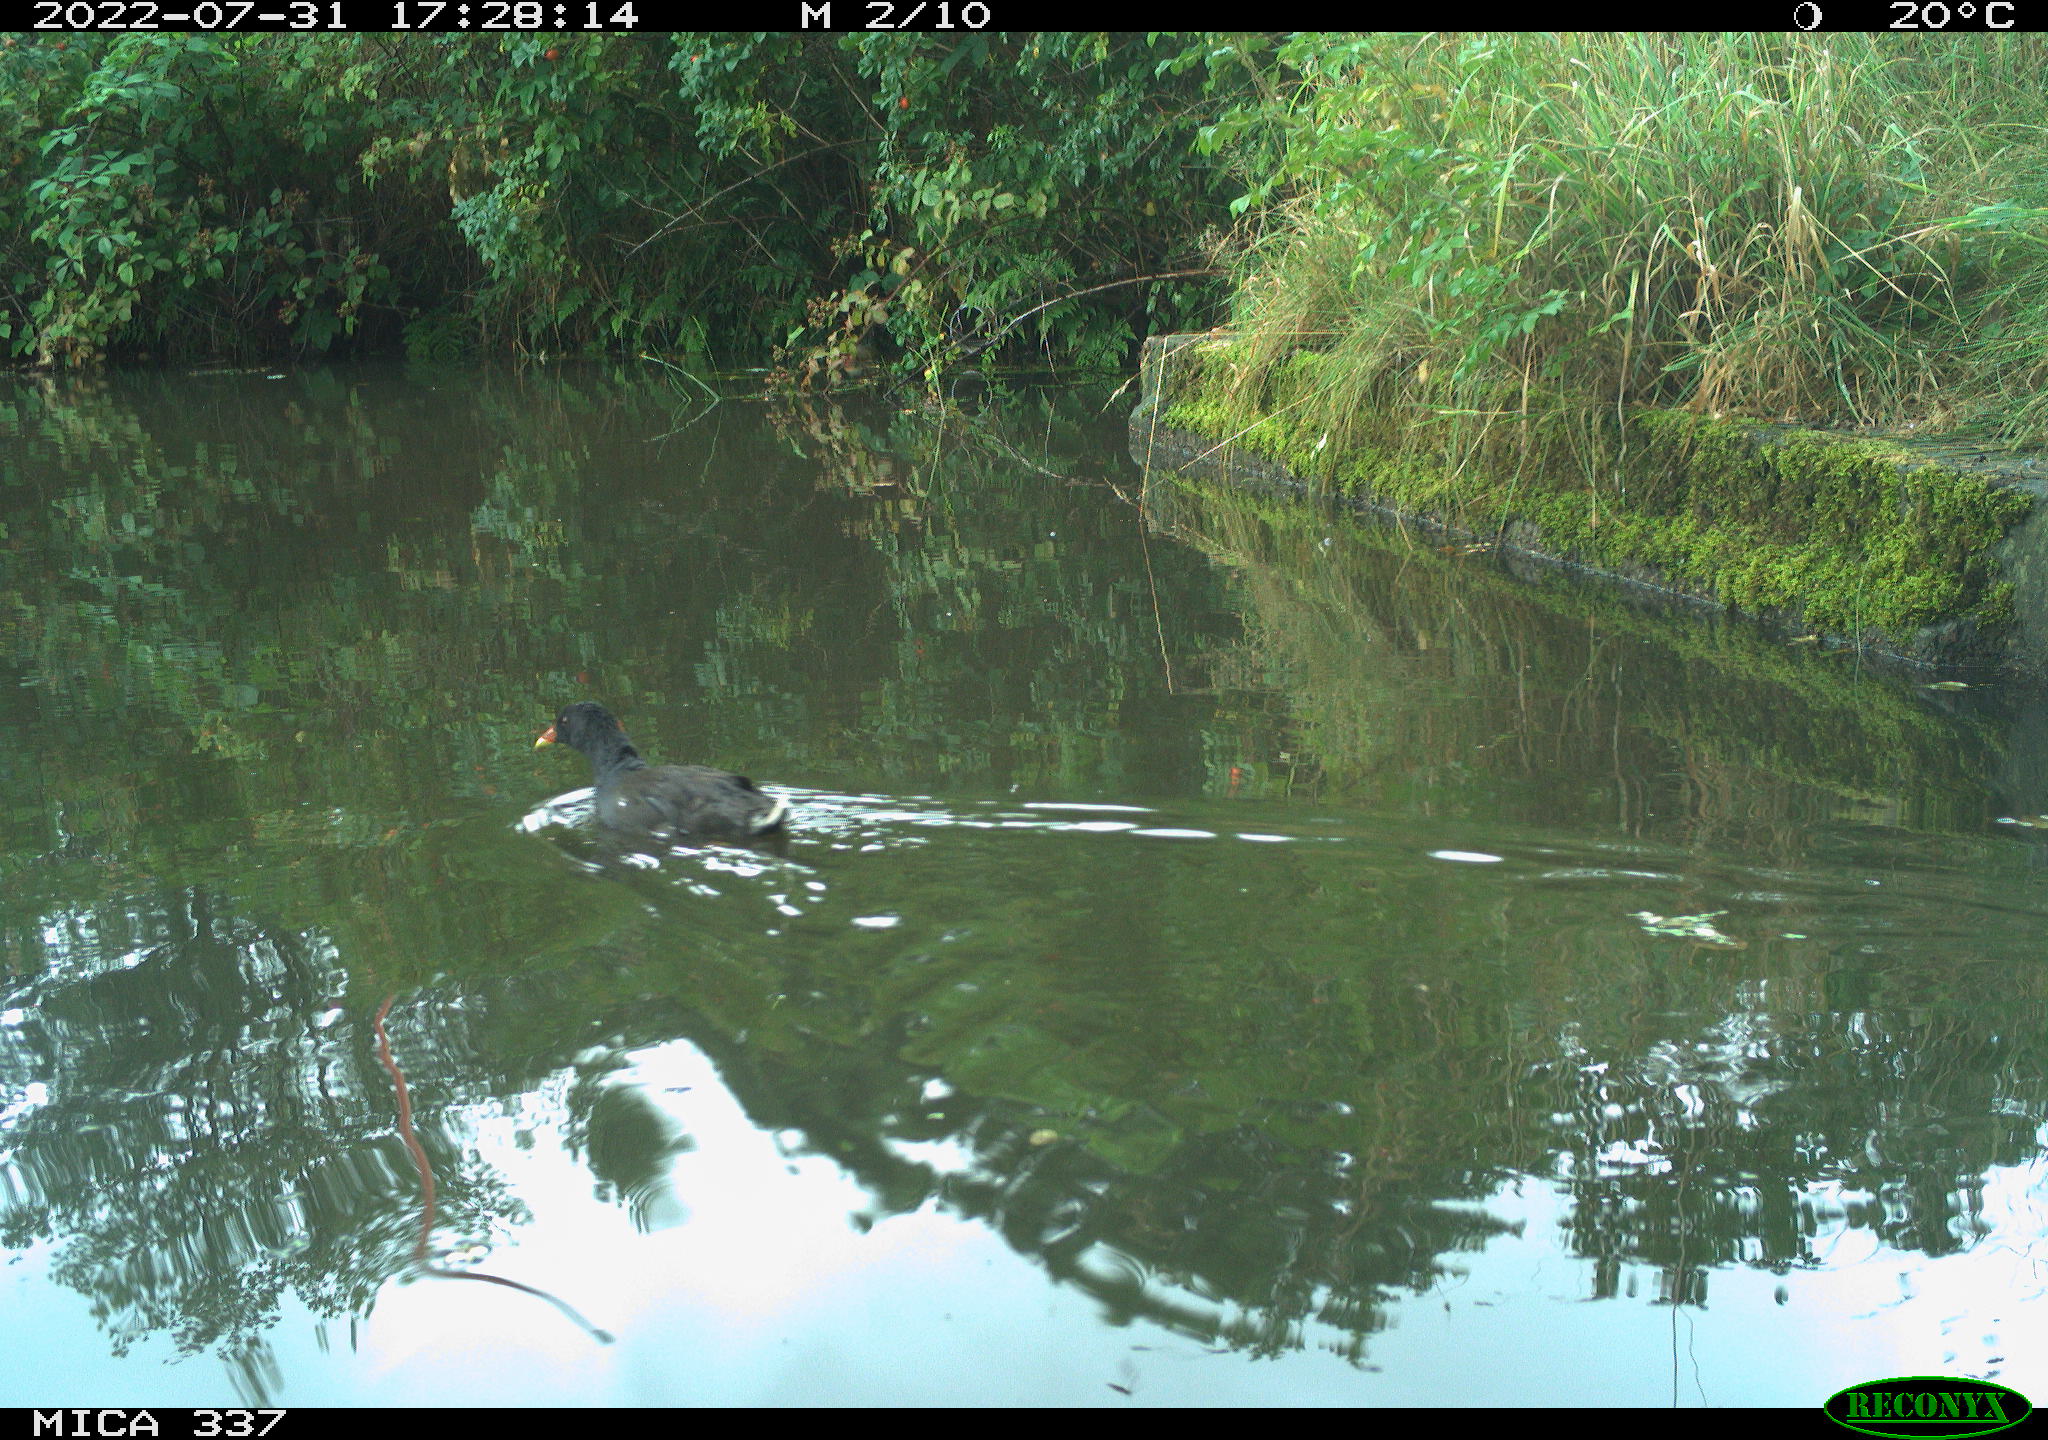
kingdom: Animalia
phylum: Chordata
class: Aves
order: Gruiformes
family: Rallidae
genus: Gallinula
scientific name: Gallinula chloropus
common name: Common moorhen
